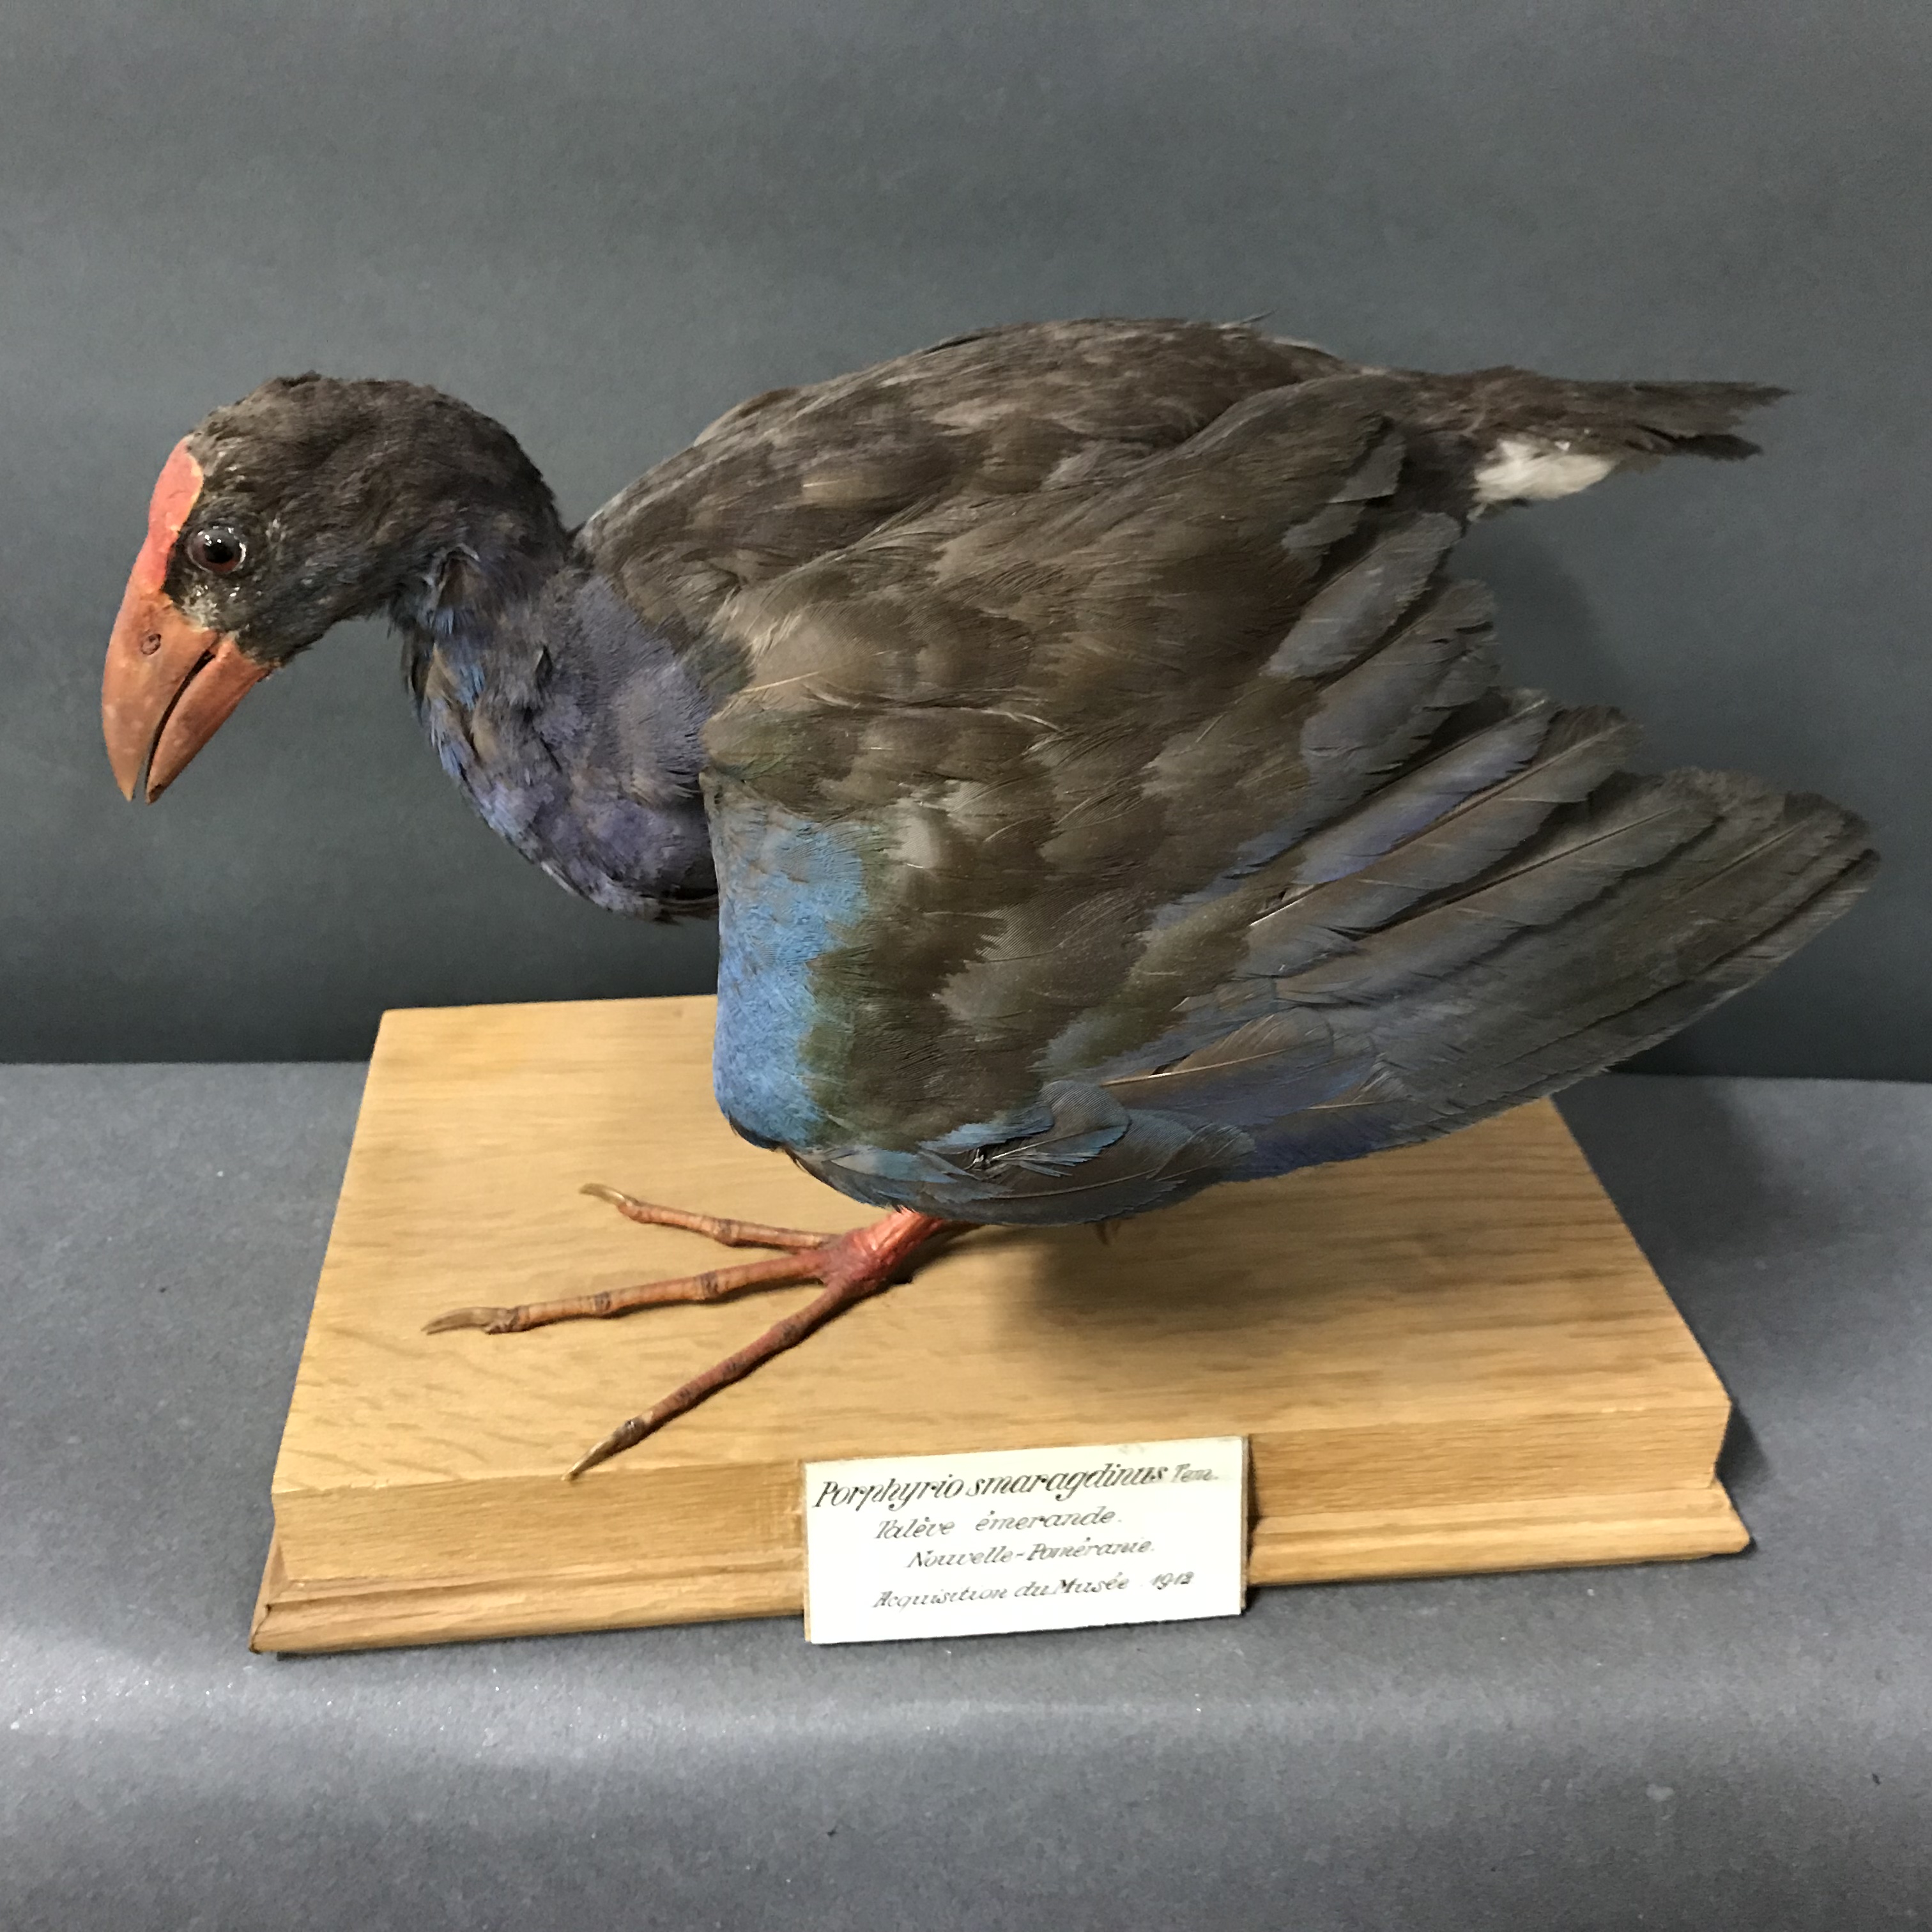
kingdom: Animalia
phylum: Chordata
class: Aves
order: Gruiformes
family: Rallidae
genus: Porphyrio
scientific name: Porphyrio porphyrio
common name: Purple swamphen
